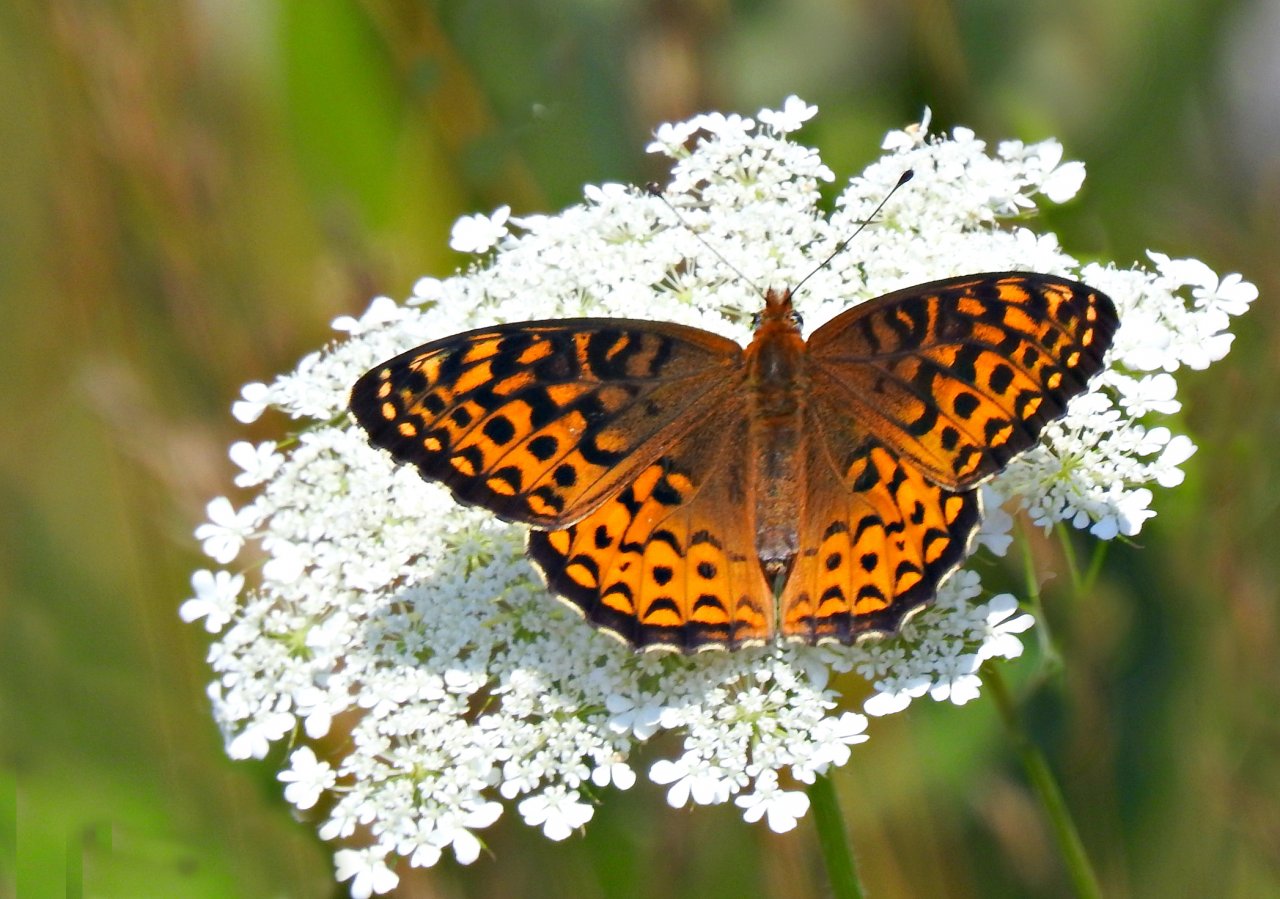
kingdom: Animalia
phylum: Arthropoda
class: Insecta
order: Lepidoptera
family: Nymphalidae
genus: Speyeria
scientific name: Speyeria atlantis
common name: Atlantis Fritillary
